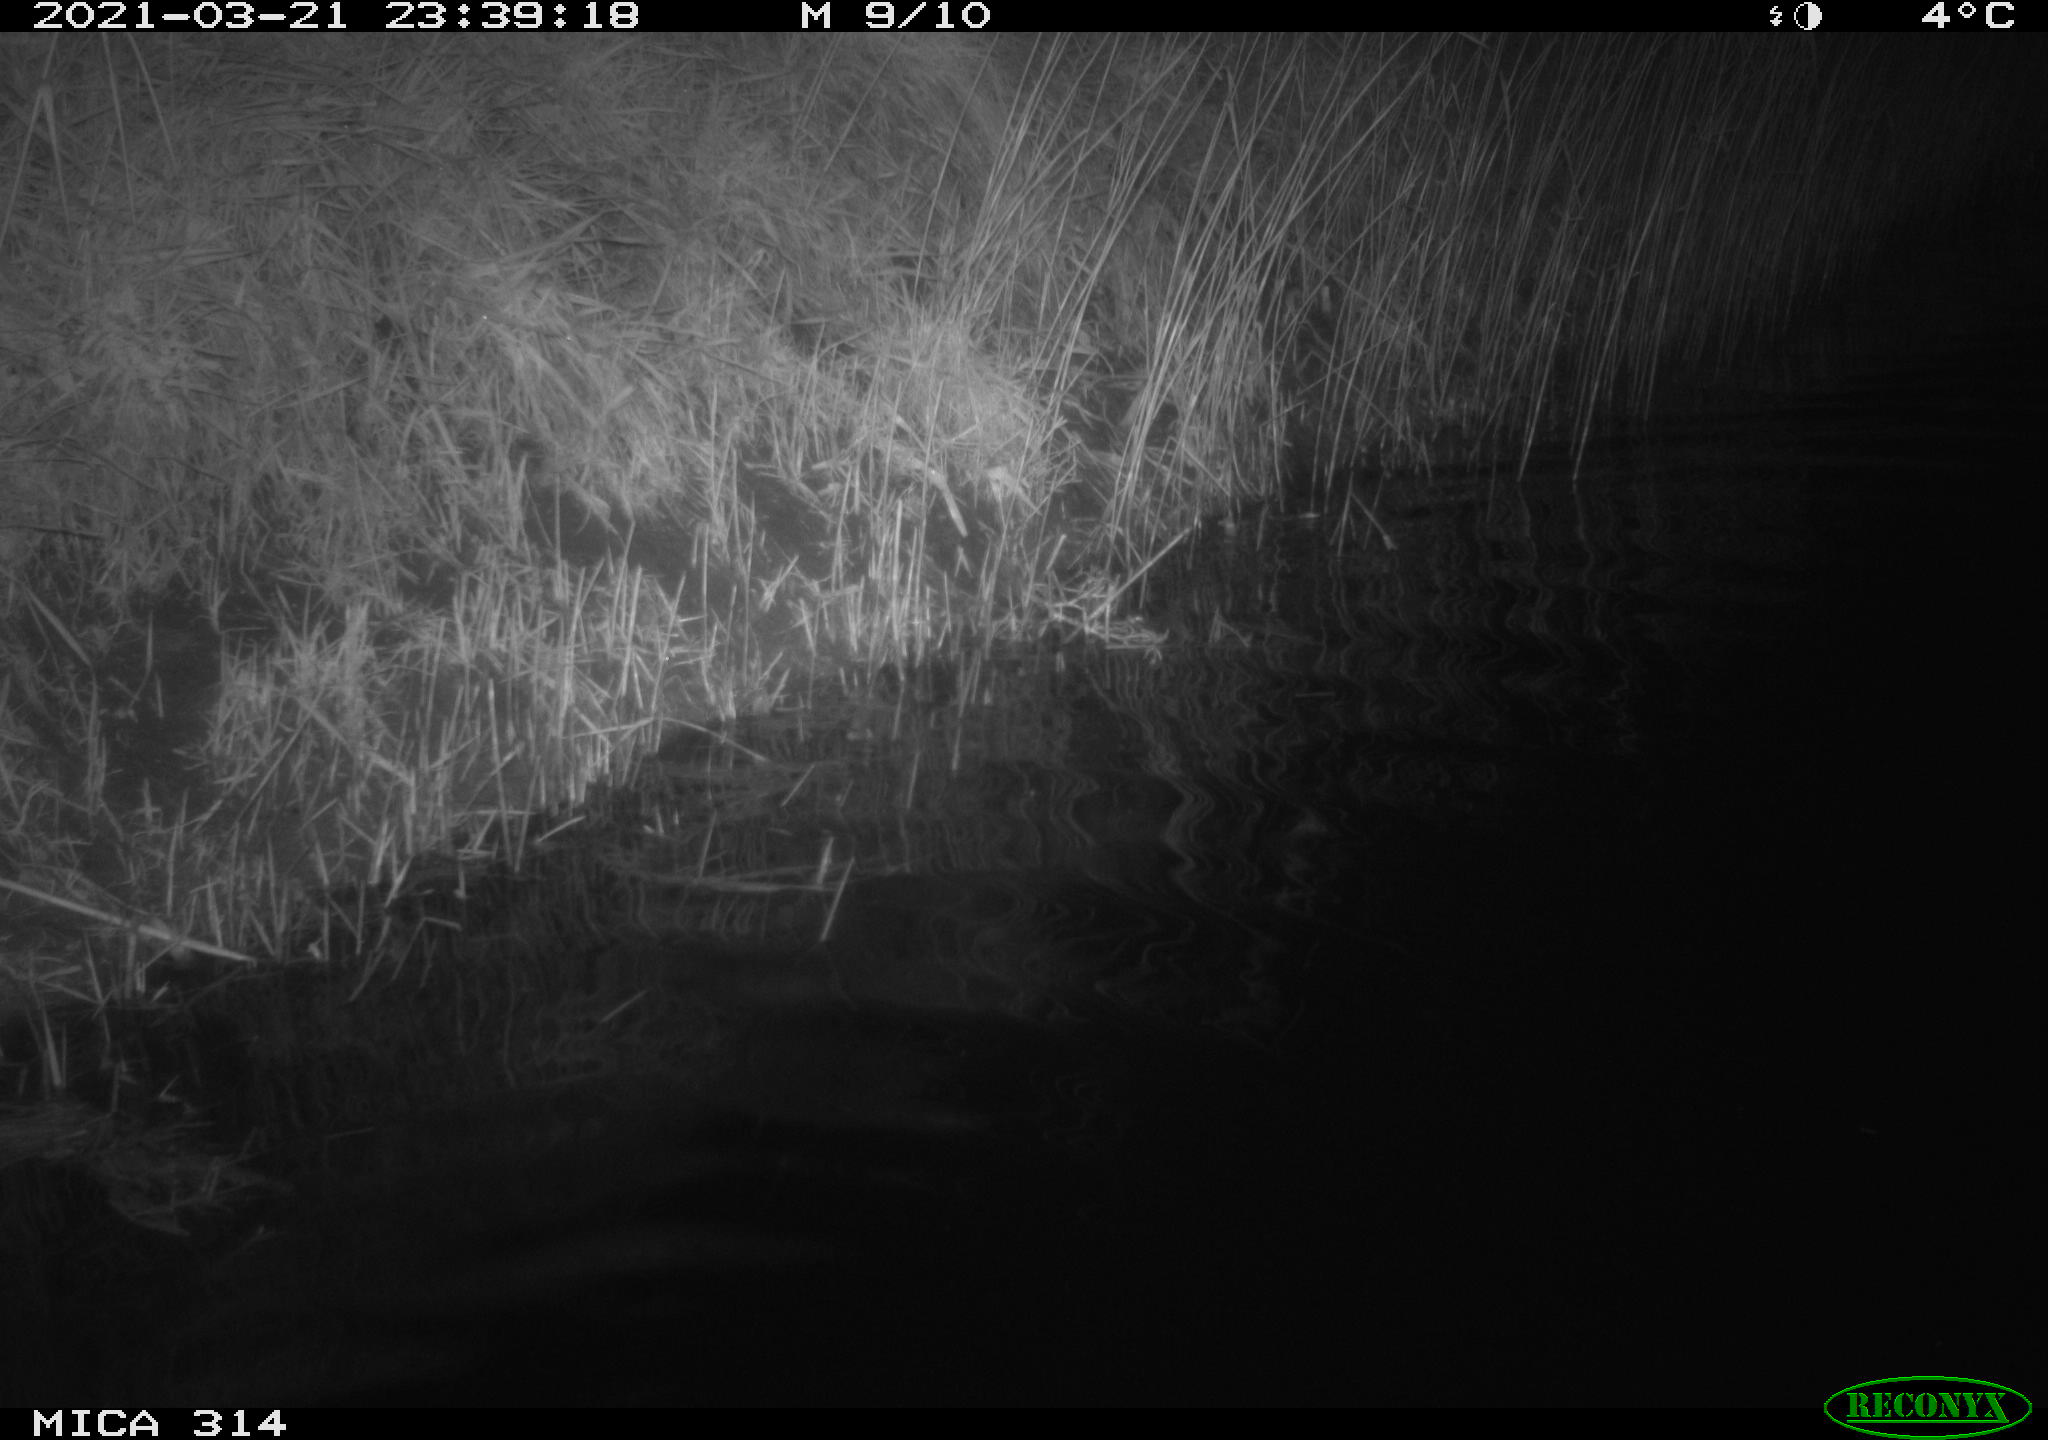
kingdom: Animalia
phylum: Chordata
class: Aves
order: Anseriformes
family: Anatidae
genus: Anas
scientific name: Anas platyrhynchos
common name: Mallard
